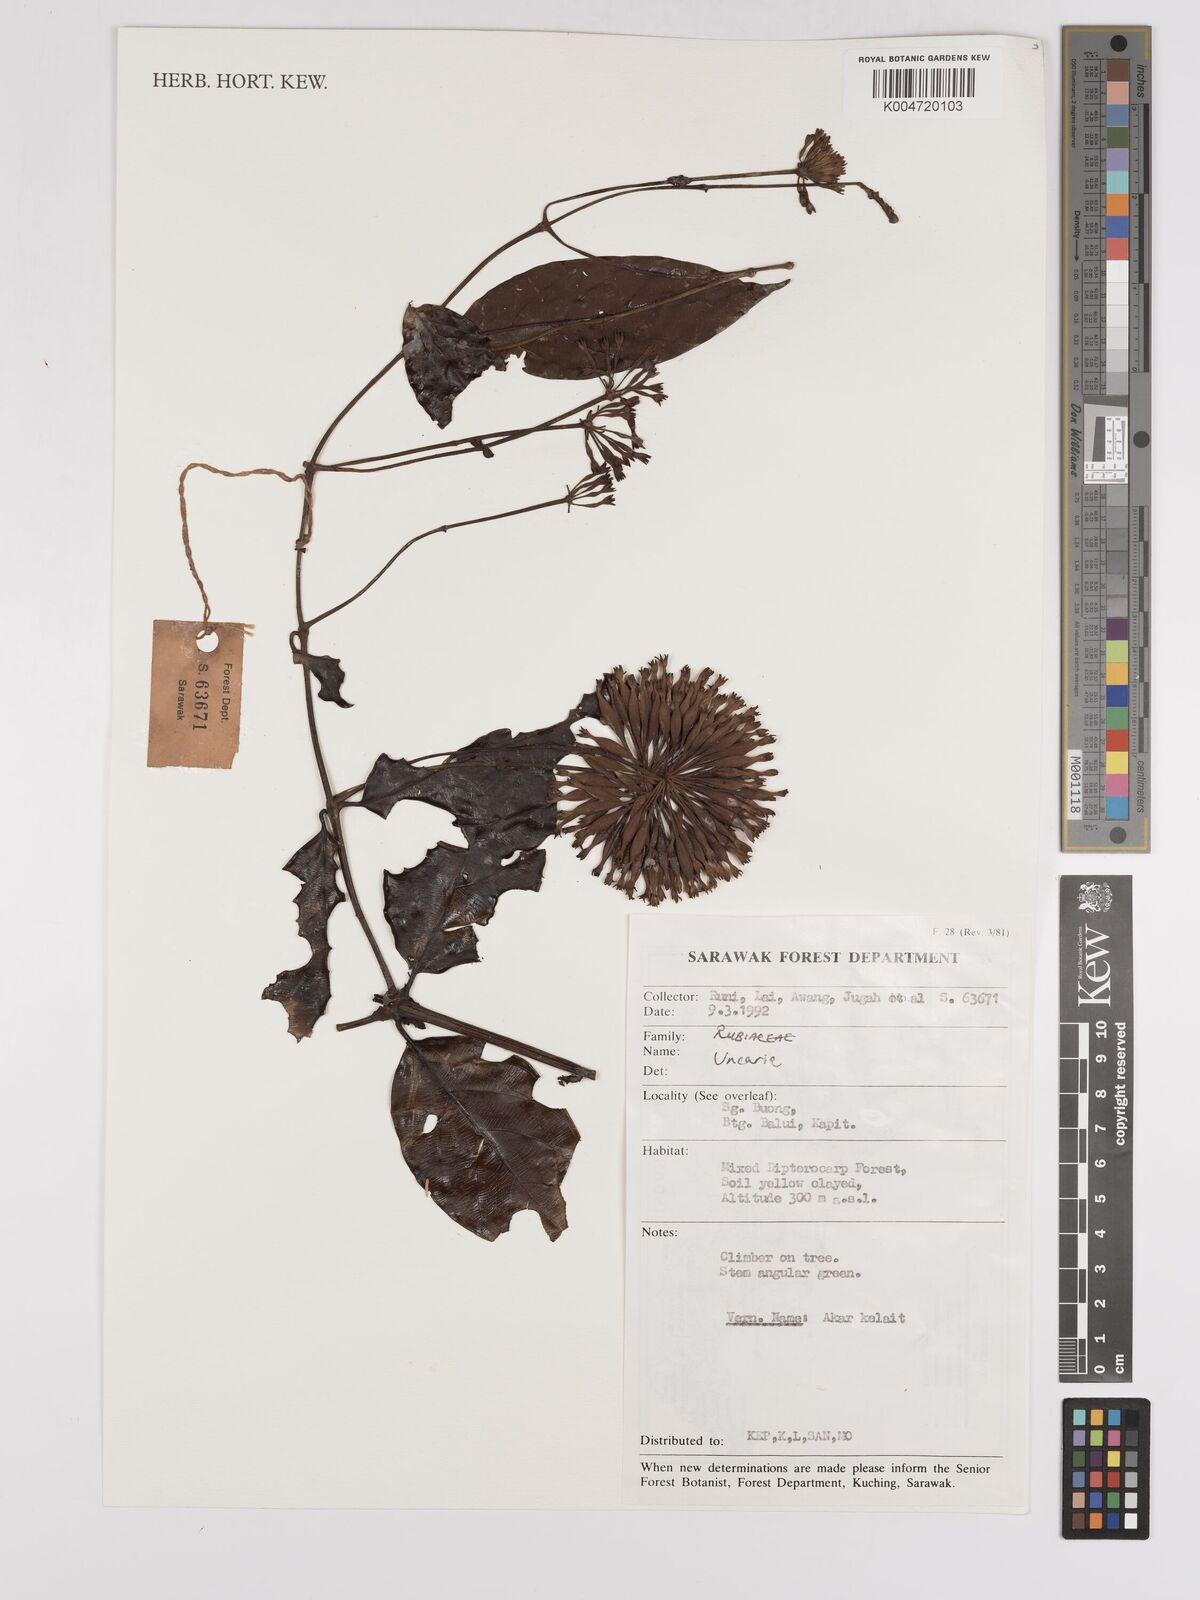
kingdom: Plantae
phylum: Tracheophyta
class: Magnoliopsida
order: Gentianales
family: Rubiaceae
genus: Uncaria
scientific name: Uncaria
